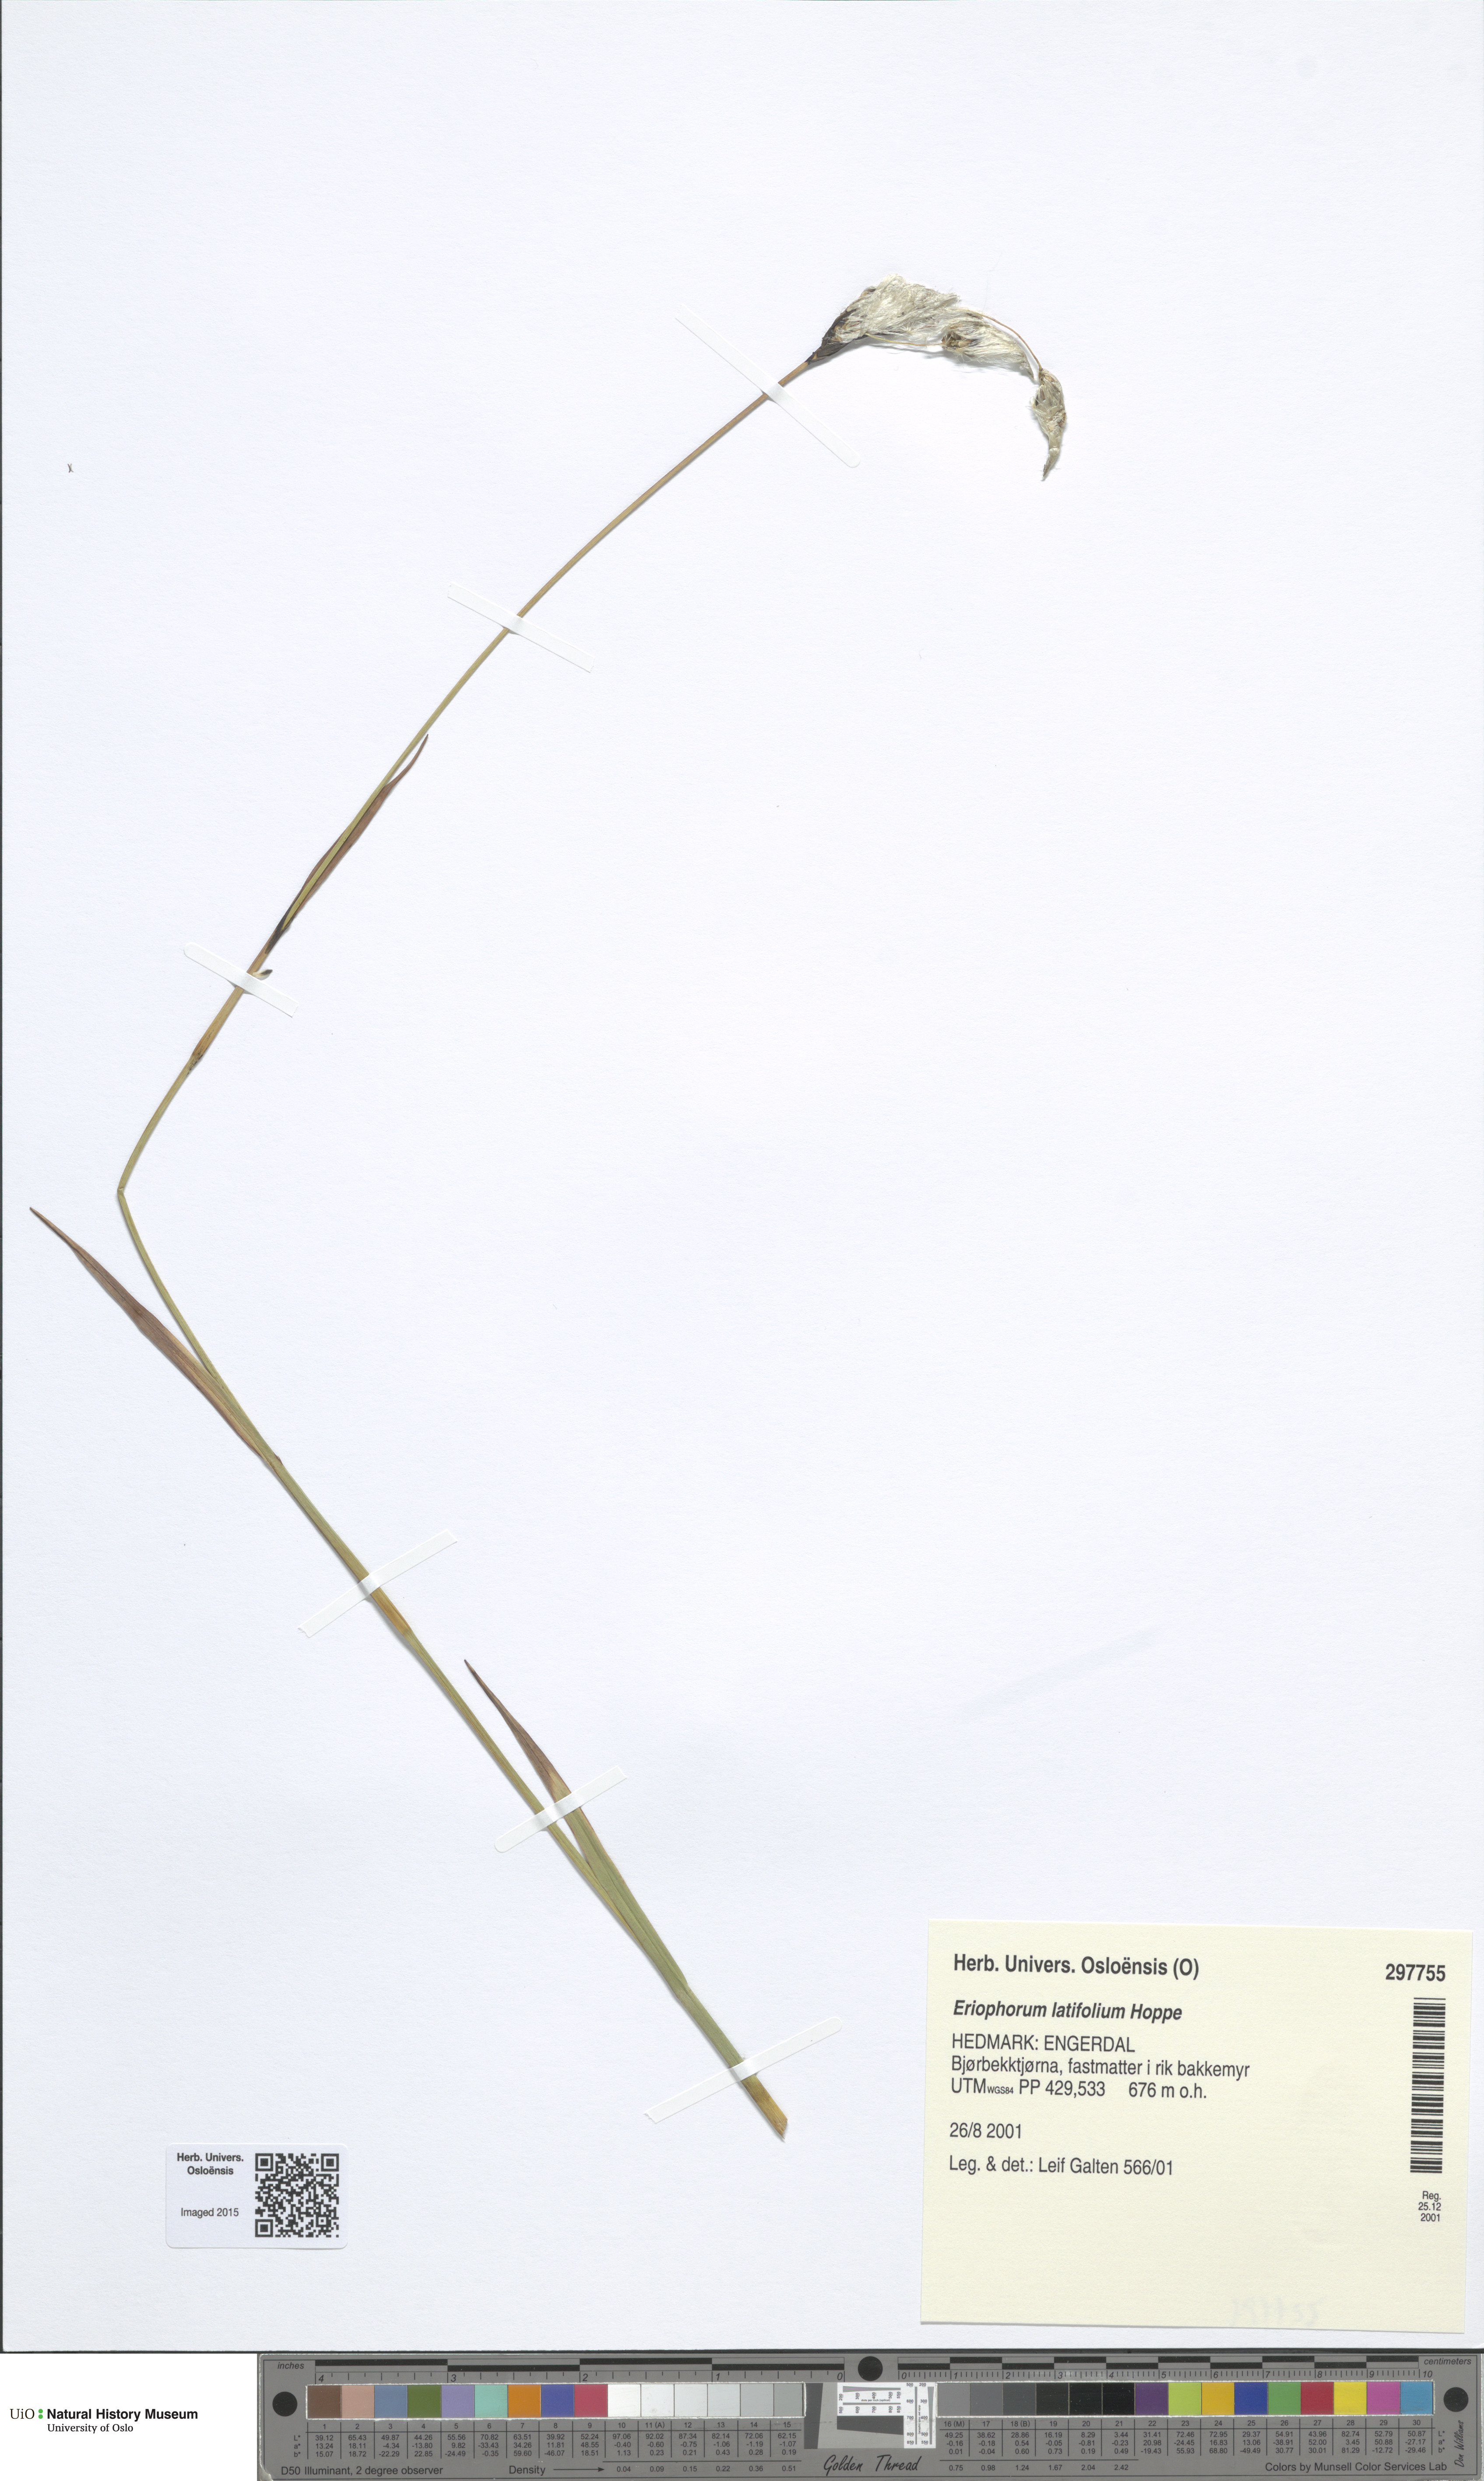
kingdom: Plantae
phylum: Tracheophyta
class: Liliopsida
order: Poales
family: Cyperaceae
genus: Eriophorum
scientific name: Eriophorum latifolium
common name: Broad-leaved cottongrass
